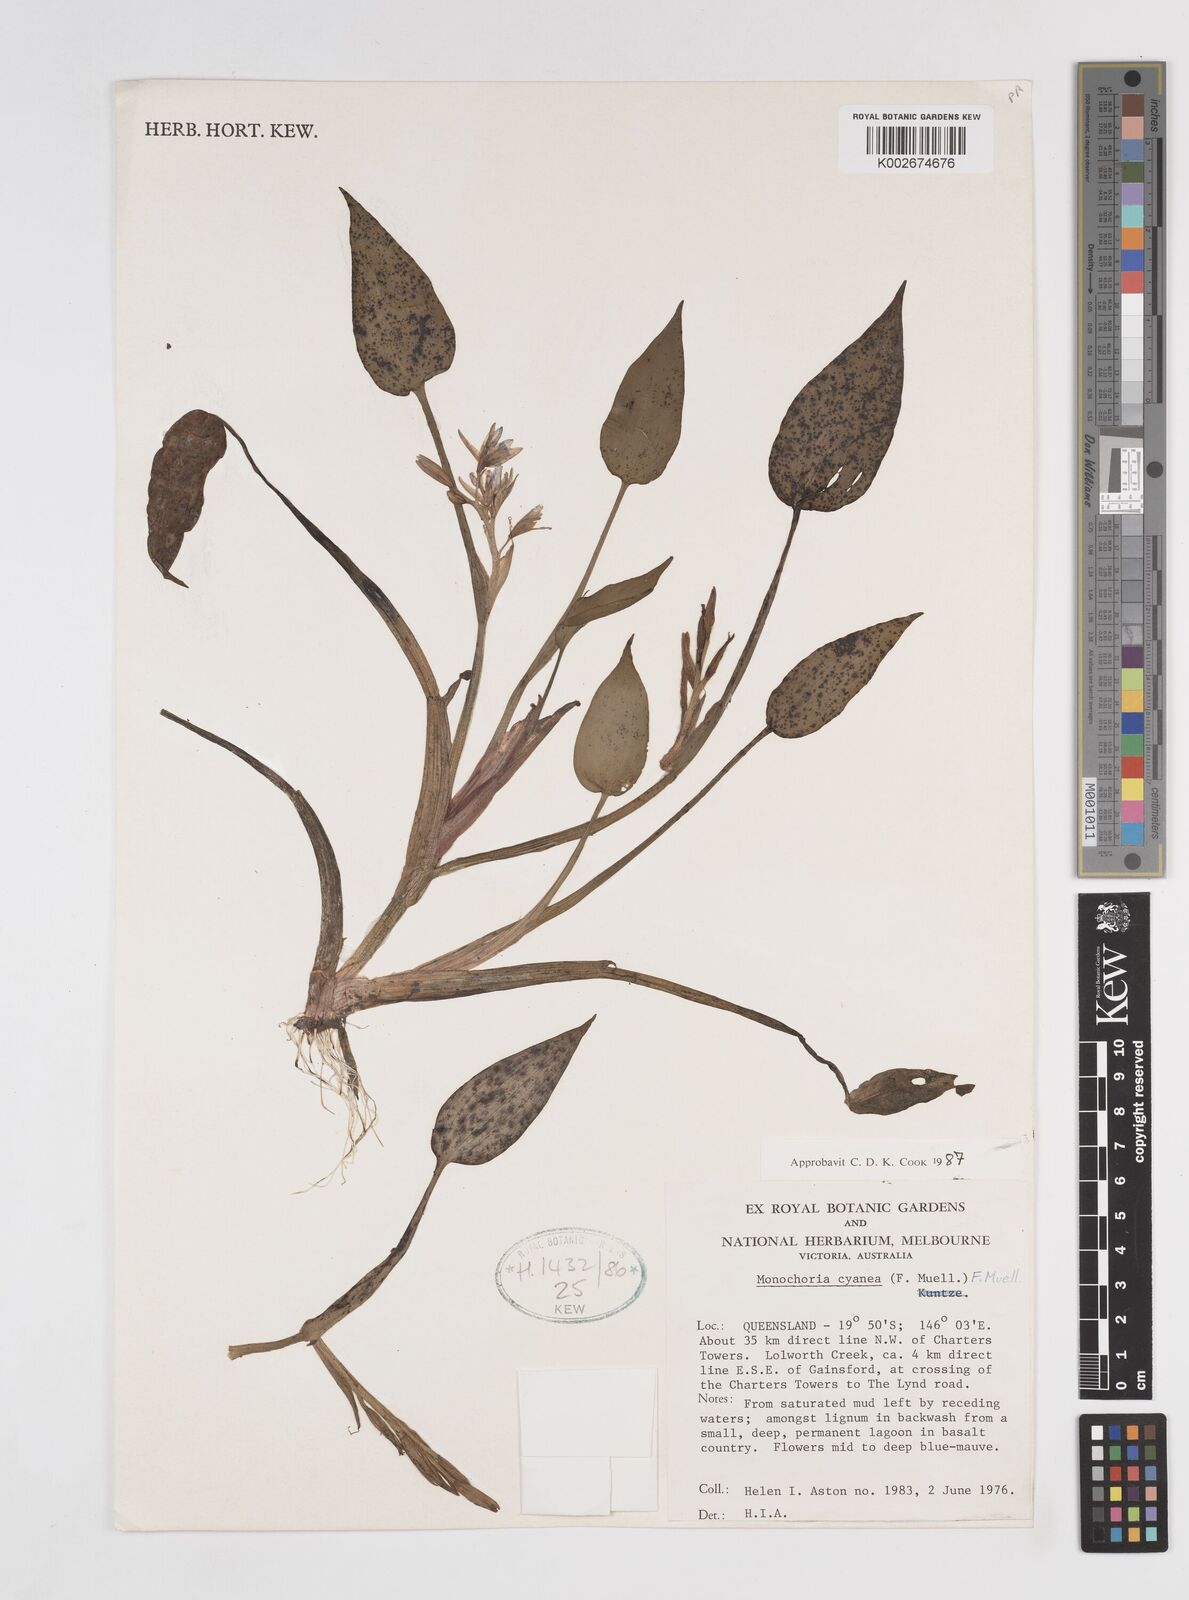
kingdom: Plantae
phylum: Tracheophyta
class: Liliopsida
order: Commelinales
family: Pontederiaceae
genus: Pontederia
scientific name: Pontederia cyanea
